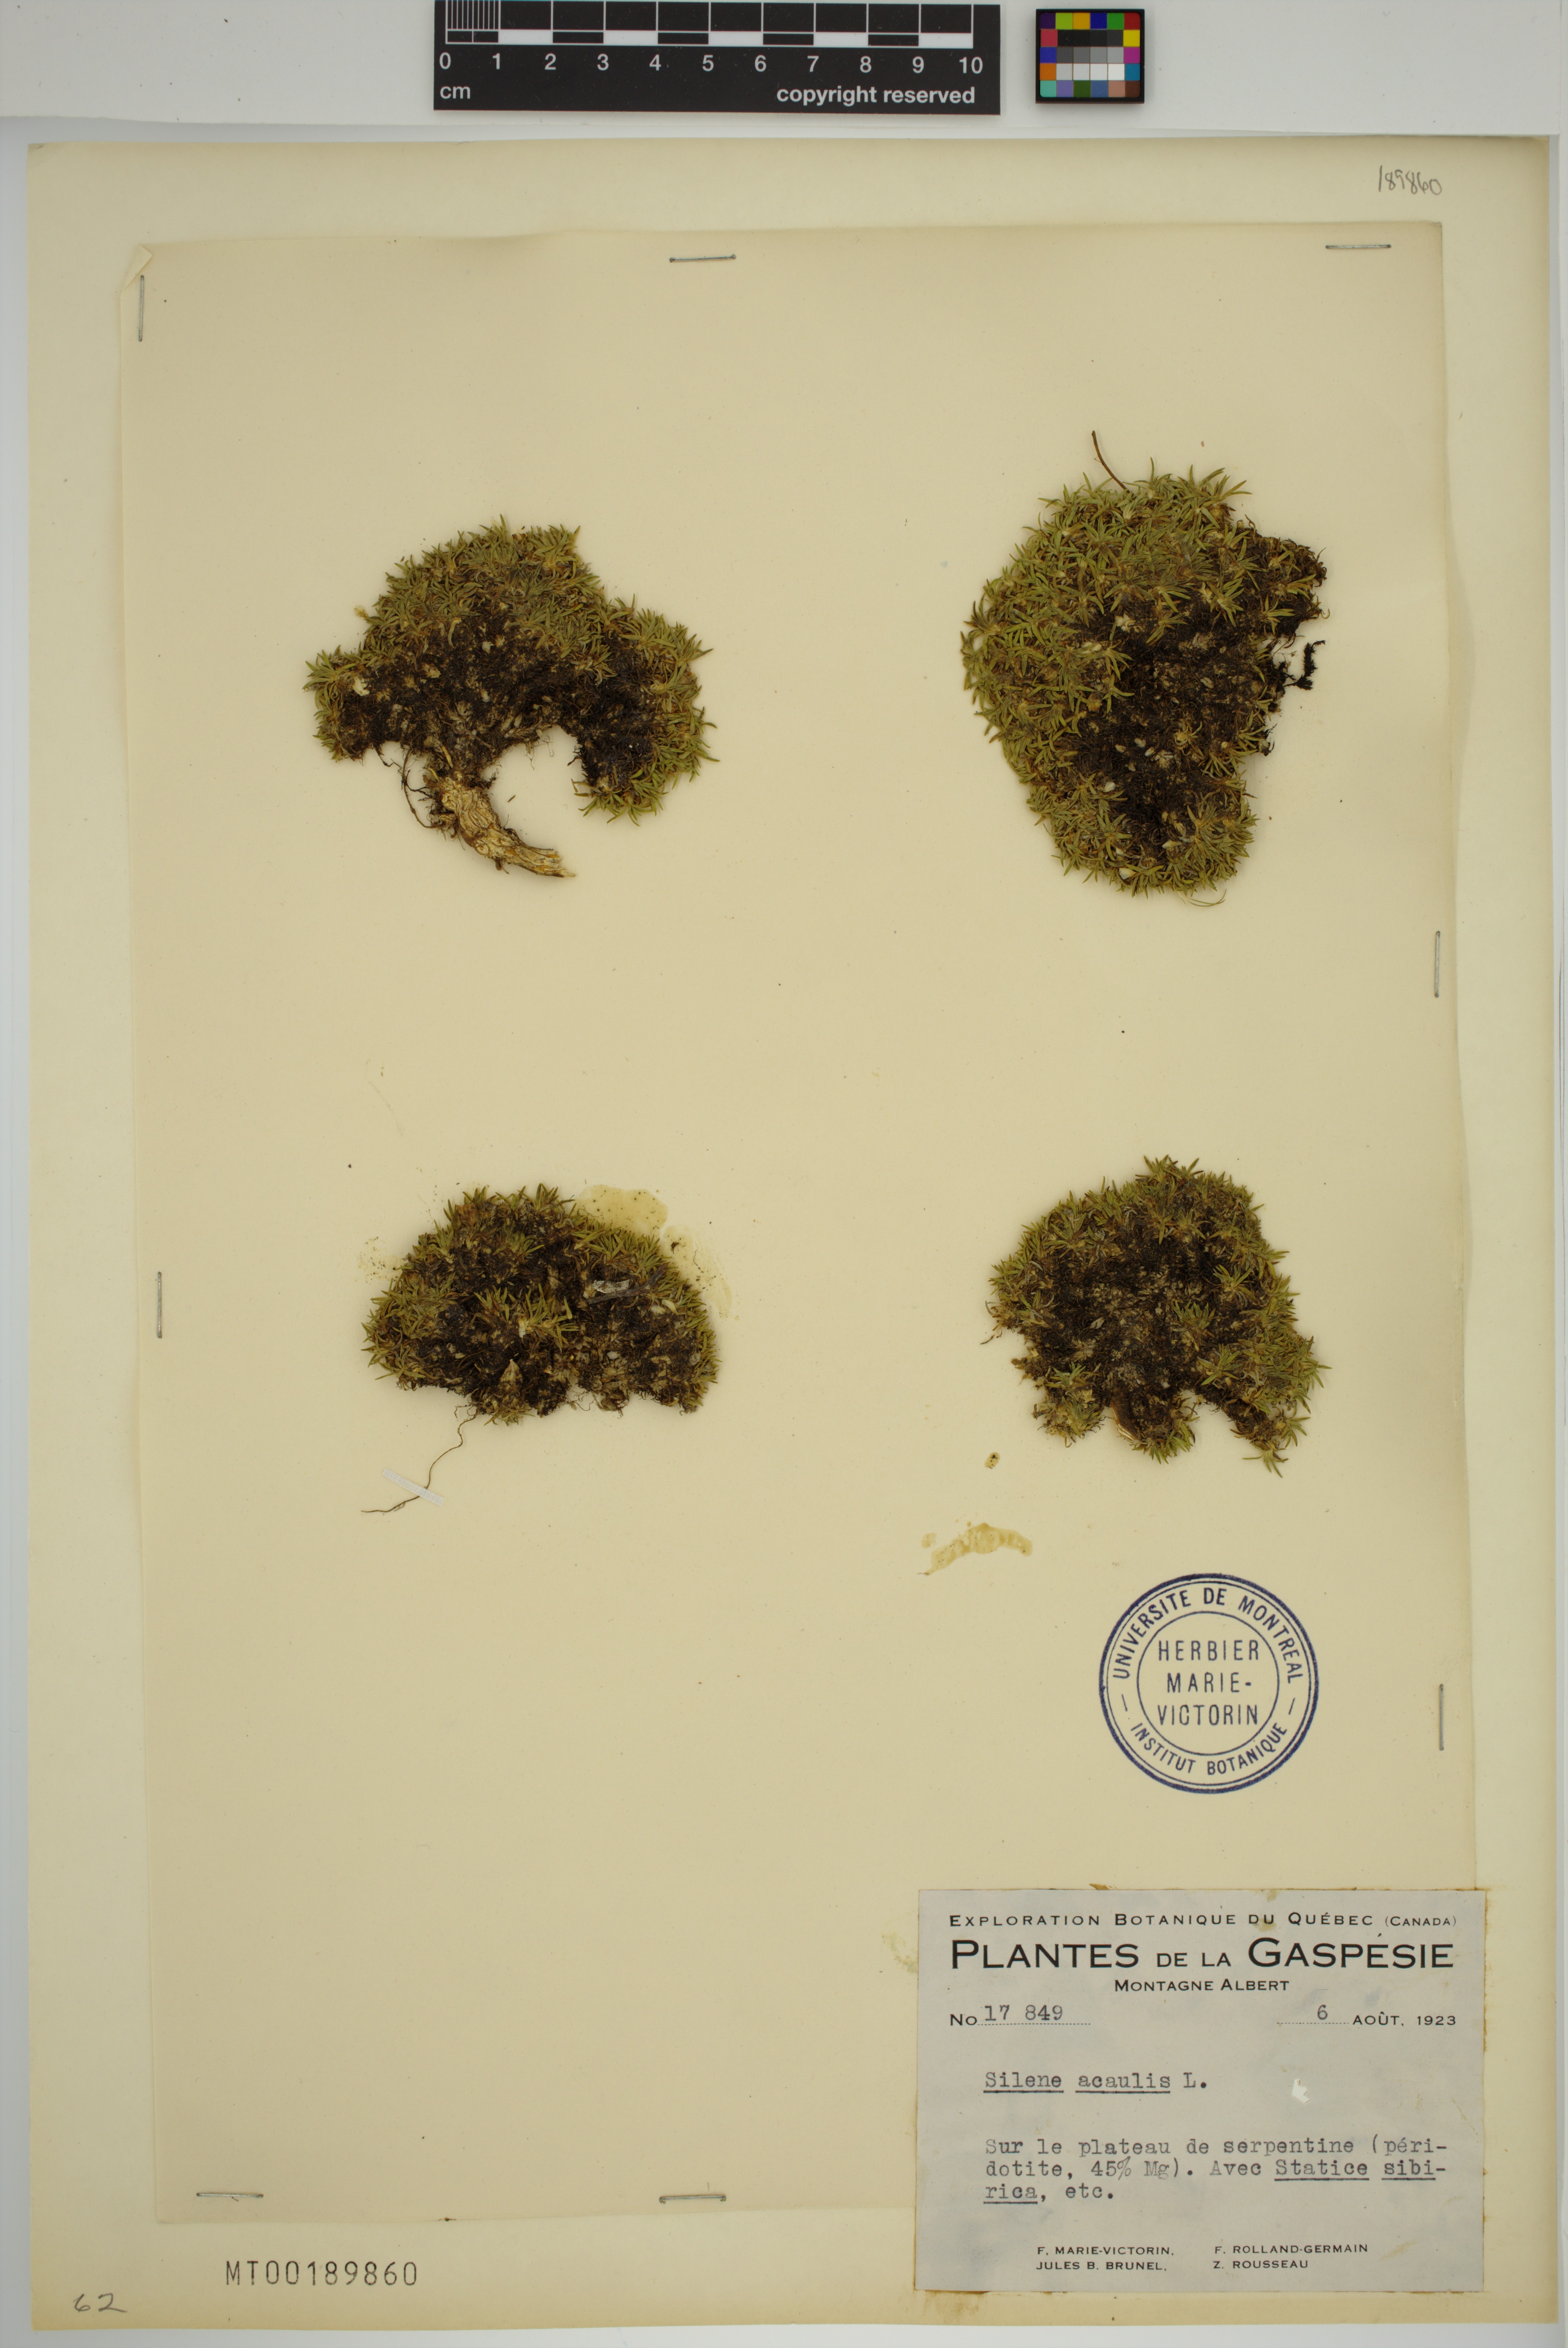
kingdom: Plantae
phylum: Tracheophyta
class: Magnoliopsida
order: Caryophyllales
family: Caryophyllaceae
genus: Silene
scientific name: Silene acaulis
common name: Moss campion
